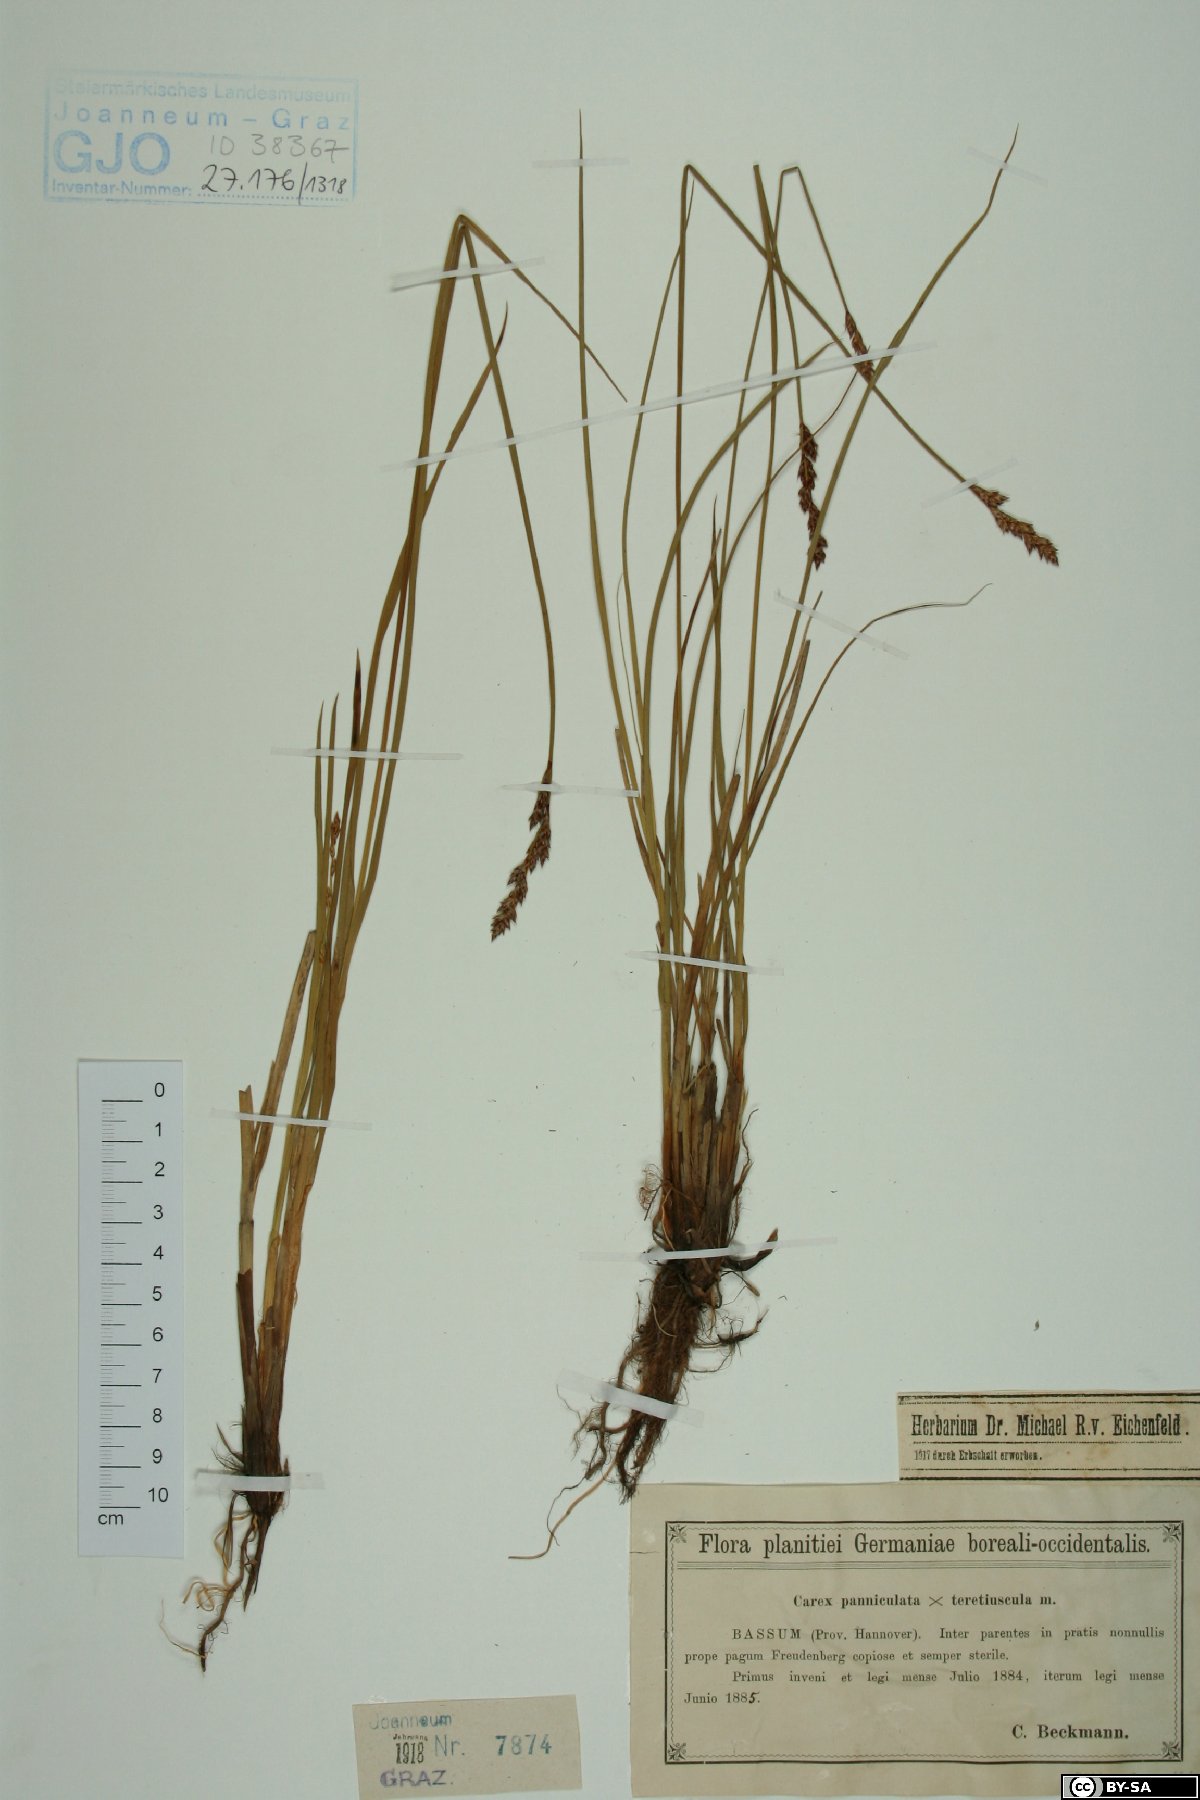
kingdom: Plantae
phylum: Tracheophyta
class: Liliopsida
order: Poales
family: Cyperaceae
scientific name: Cyperaceae
